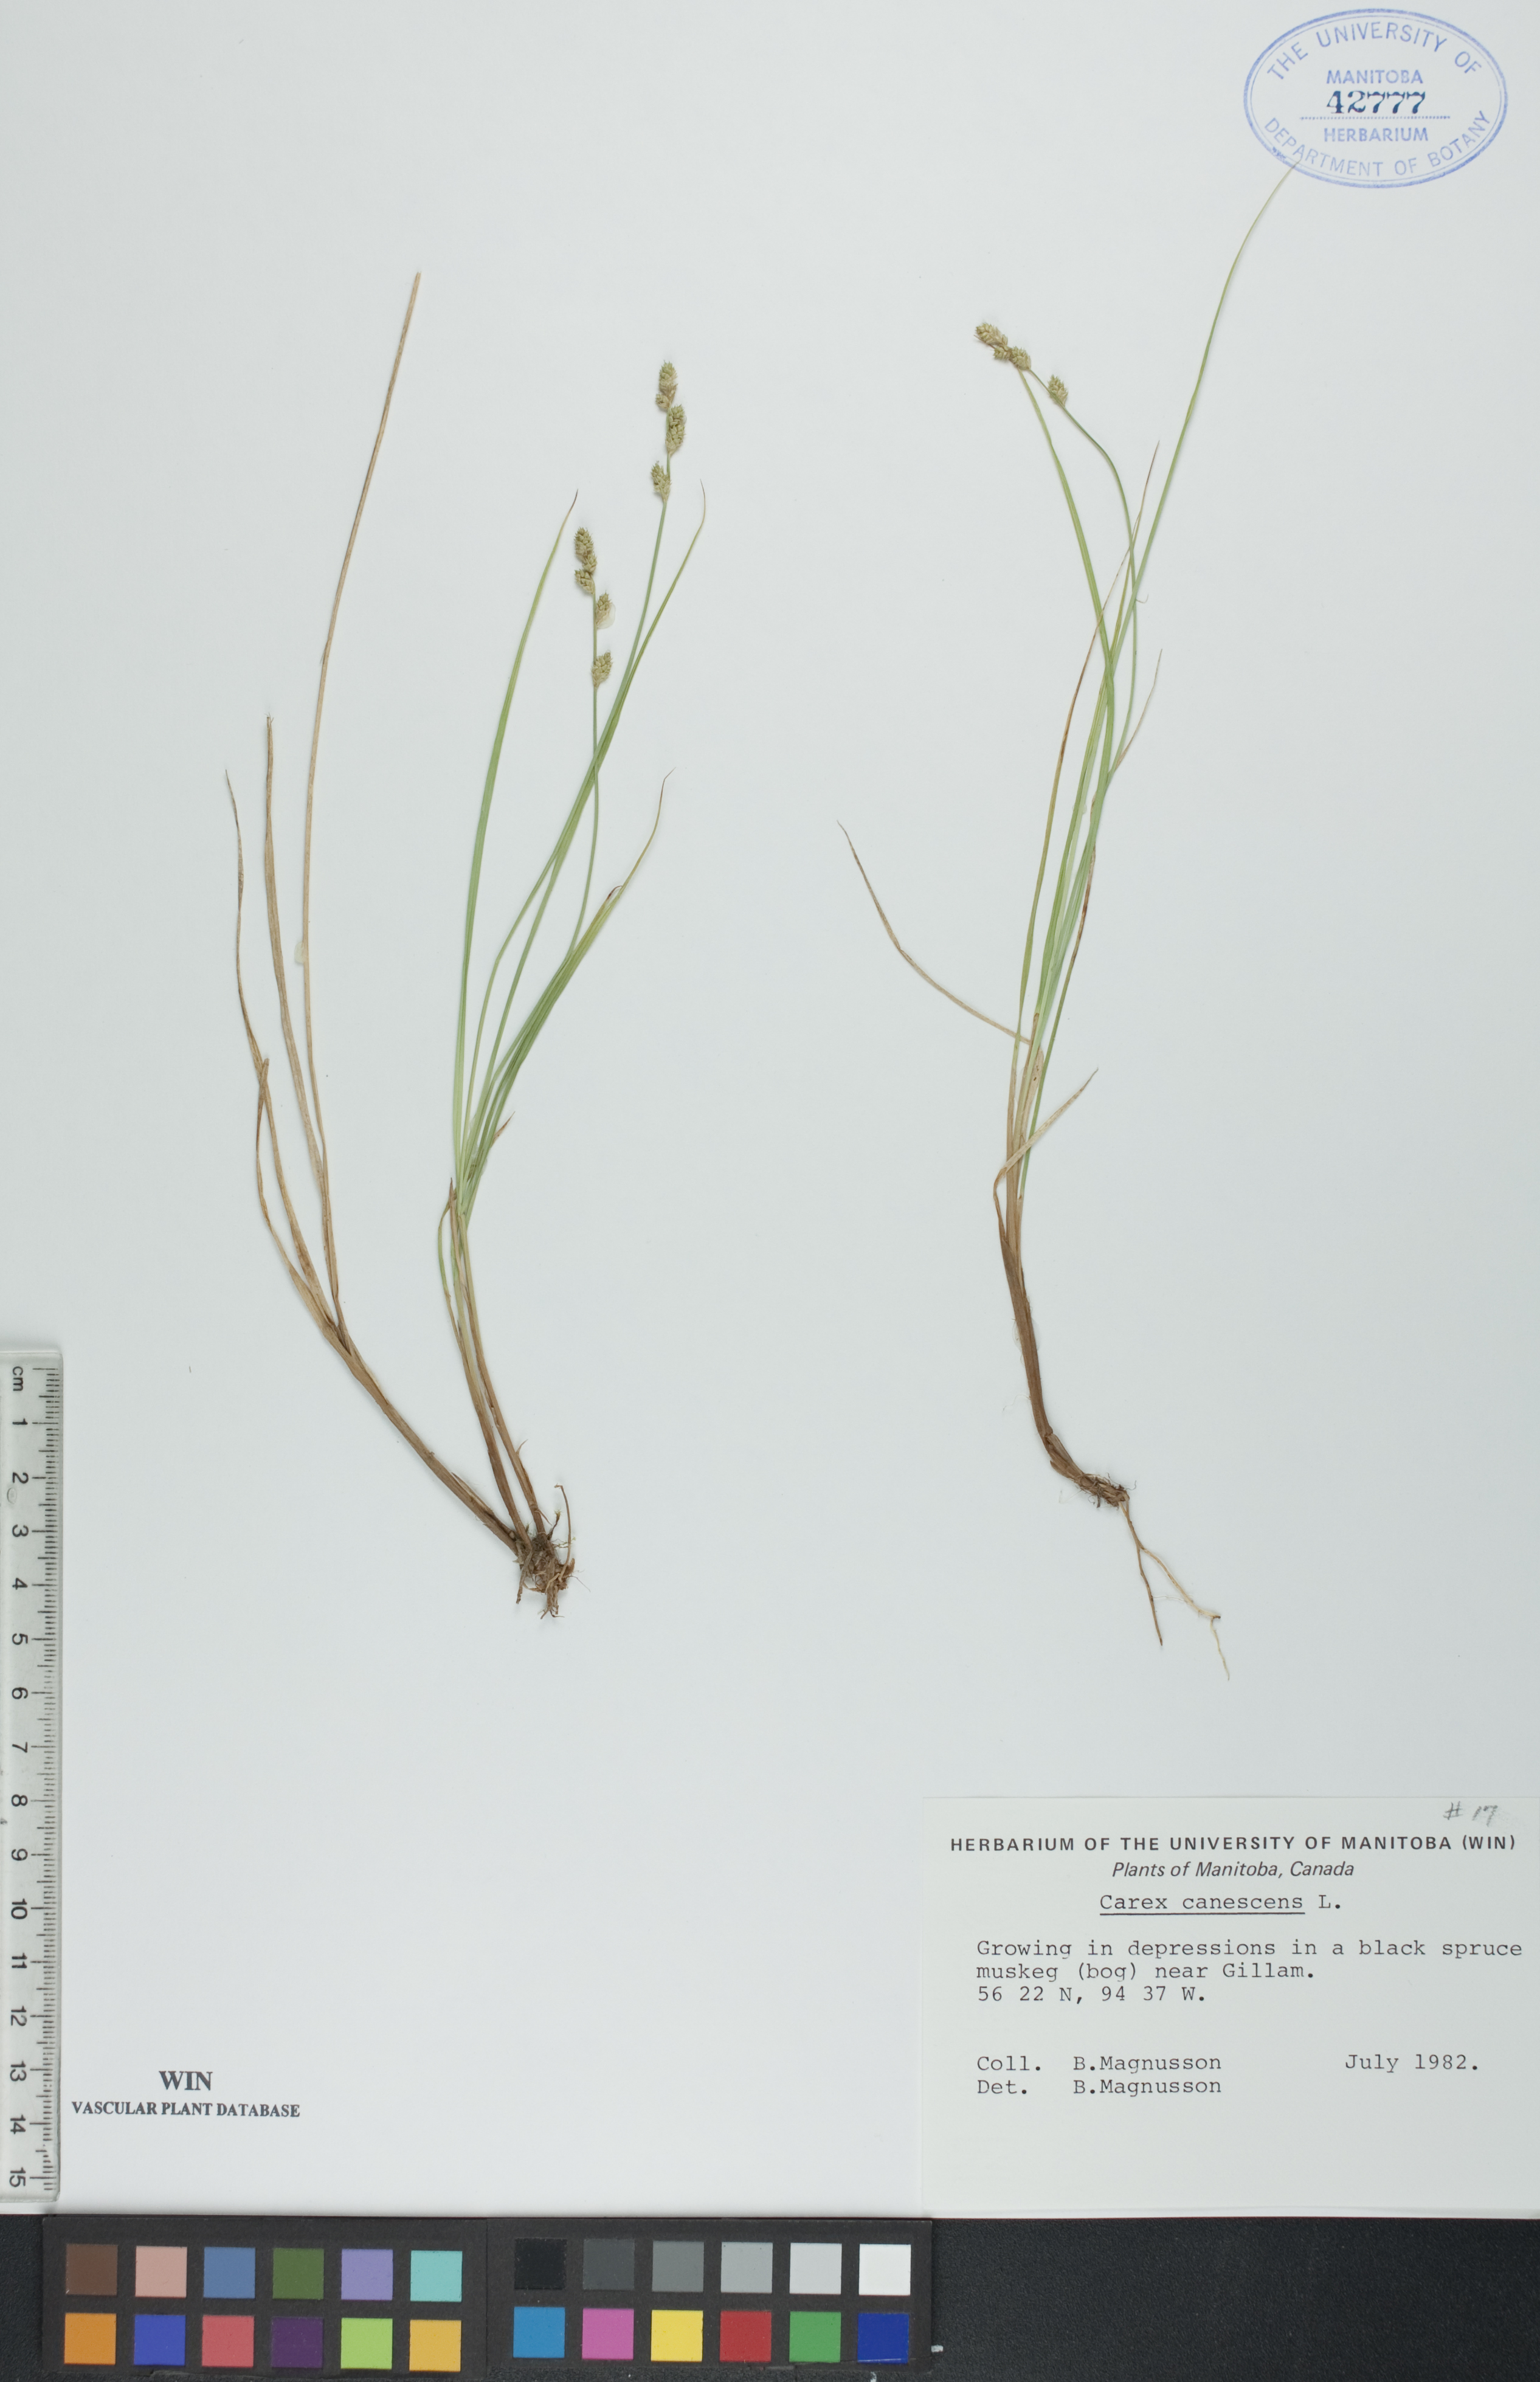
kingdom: Plantae
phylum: Tracheophyta
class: Liliopsida
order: Poales
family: Cyperaceae
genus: Carex
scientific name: Carex canescens
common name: White sedge
